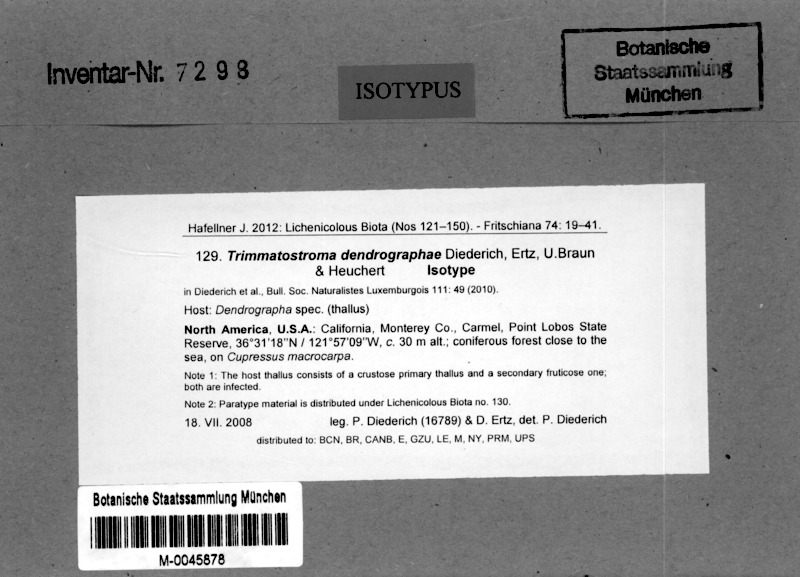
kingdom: Fungi
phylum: Ascomycota
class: Leotiomycetes
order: Helotiales
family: Mollisiaceae
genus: Trimmatostroma
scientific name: Trimmatostroma dendrographae
